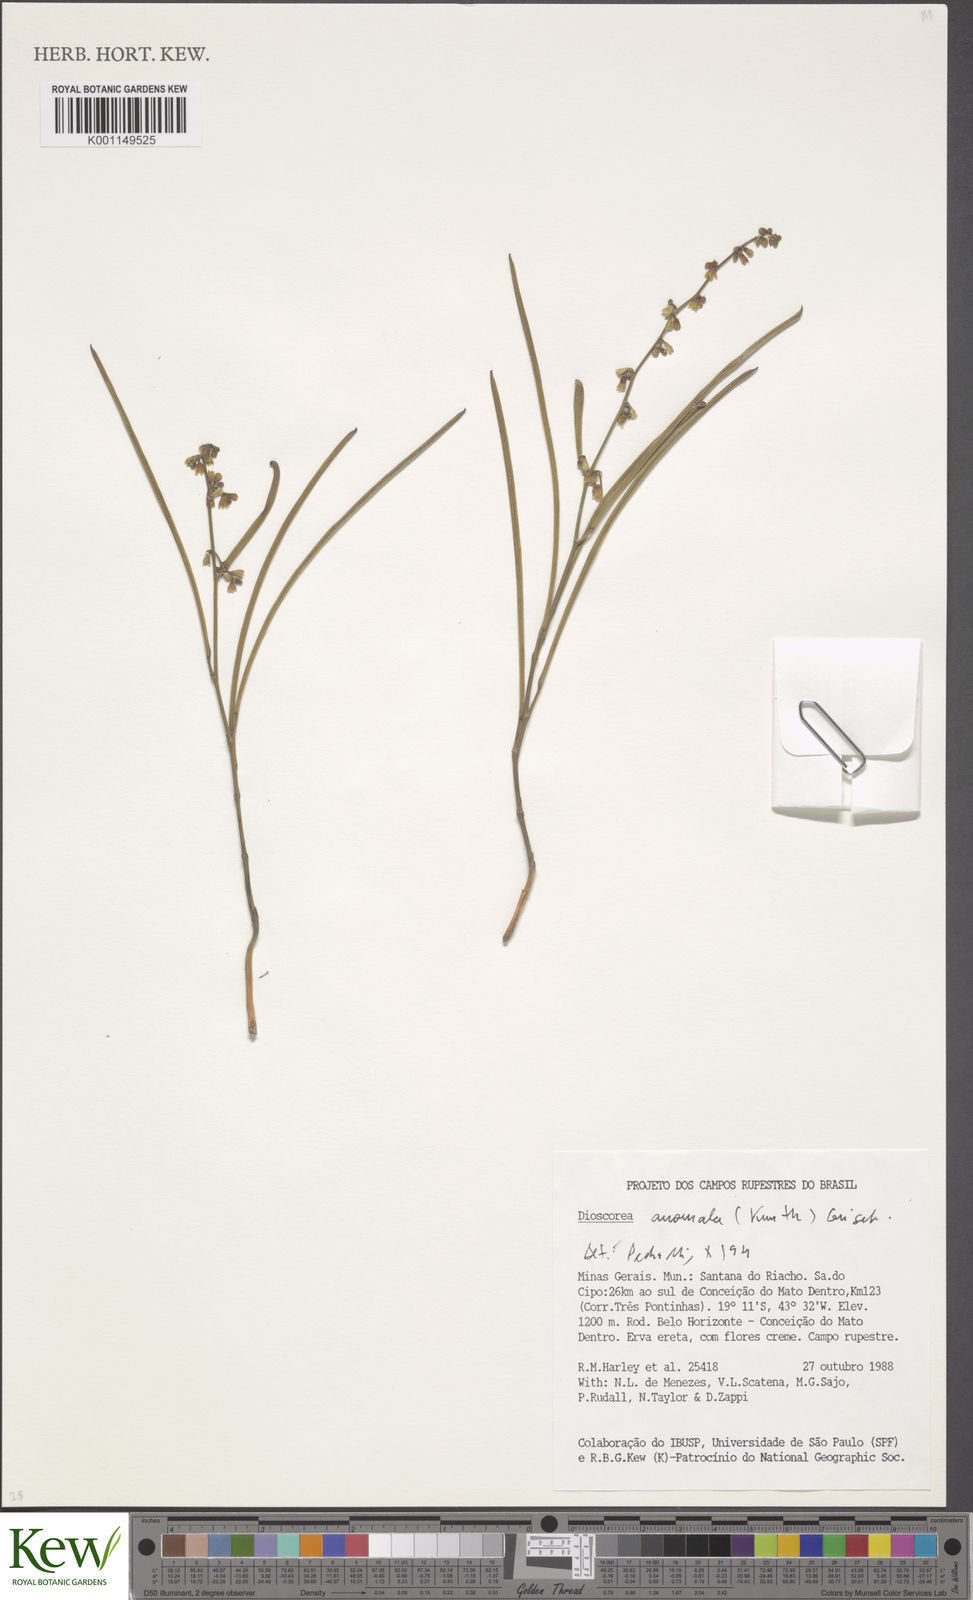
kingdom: Plantae
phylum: Tracheophyta
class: Liliopsida
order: Dioscoreales
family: Dioscoreaceae
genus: Dioscorea
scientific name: Dioscorea anomala
